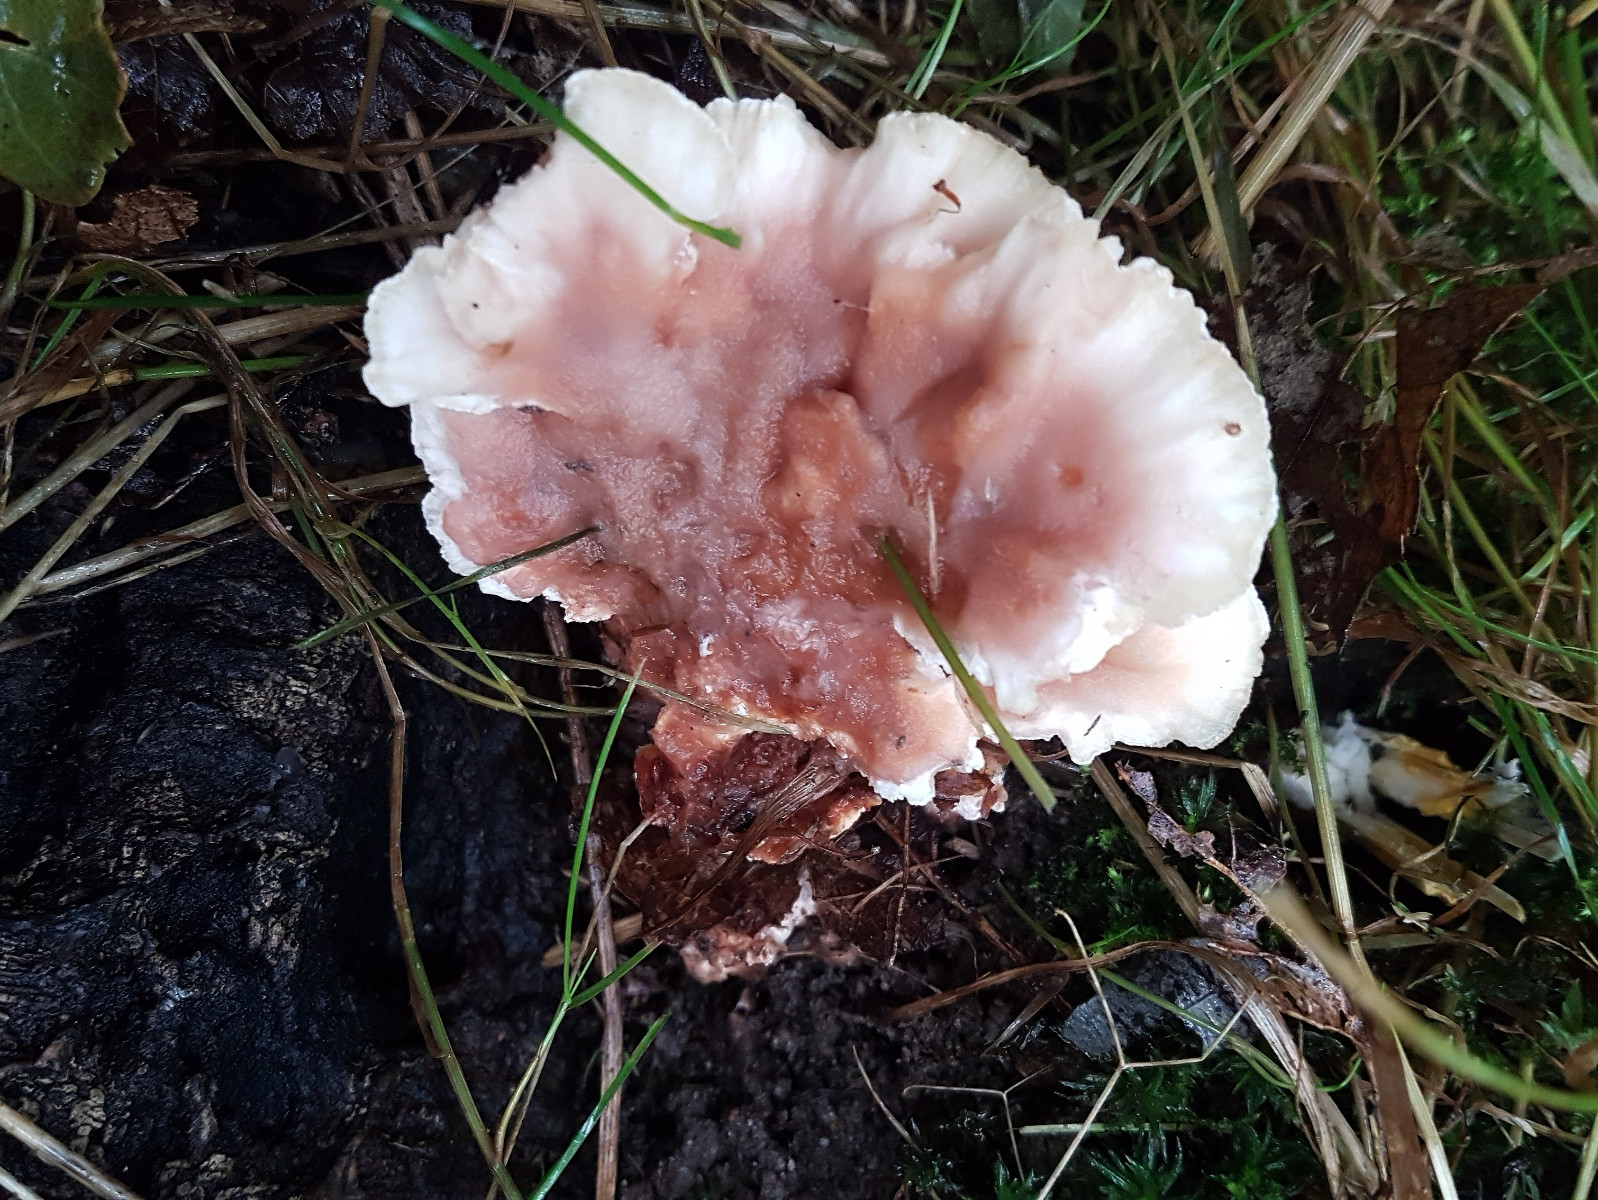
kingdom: Fungi
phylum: Basidiomycota
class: Agaricomycetes
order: Polyporales
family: Podoscyphaceae
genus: Abortiporus
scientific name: Abortiporus biennis
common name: rødmende pjalteporesvamp
